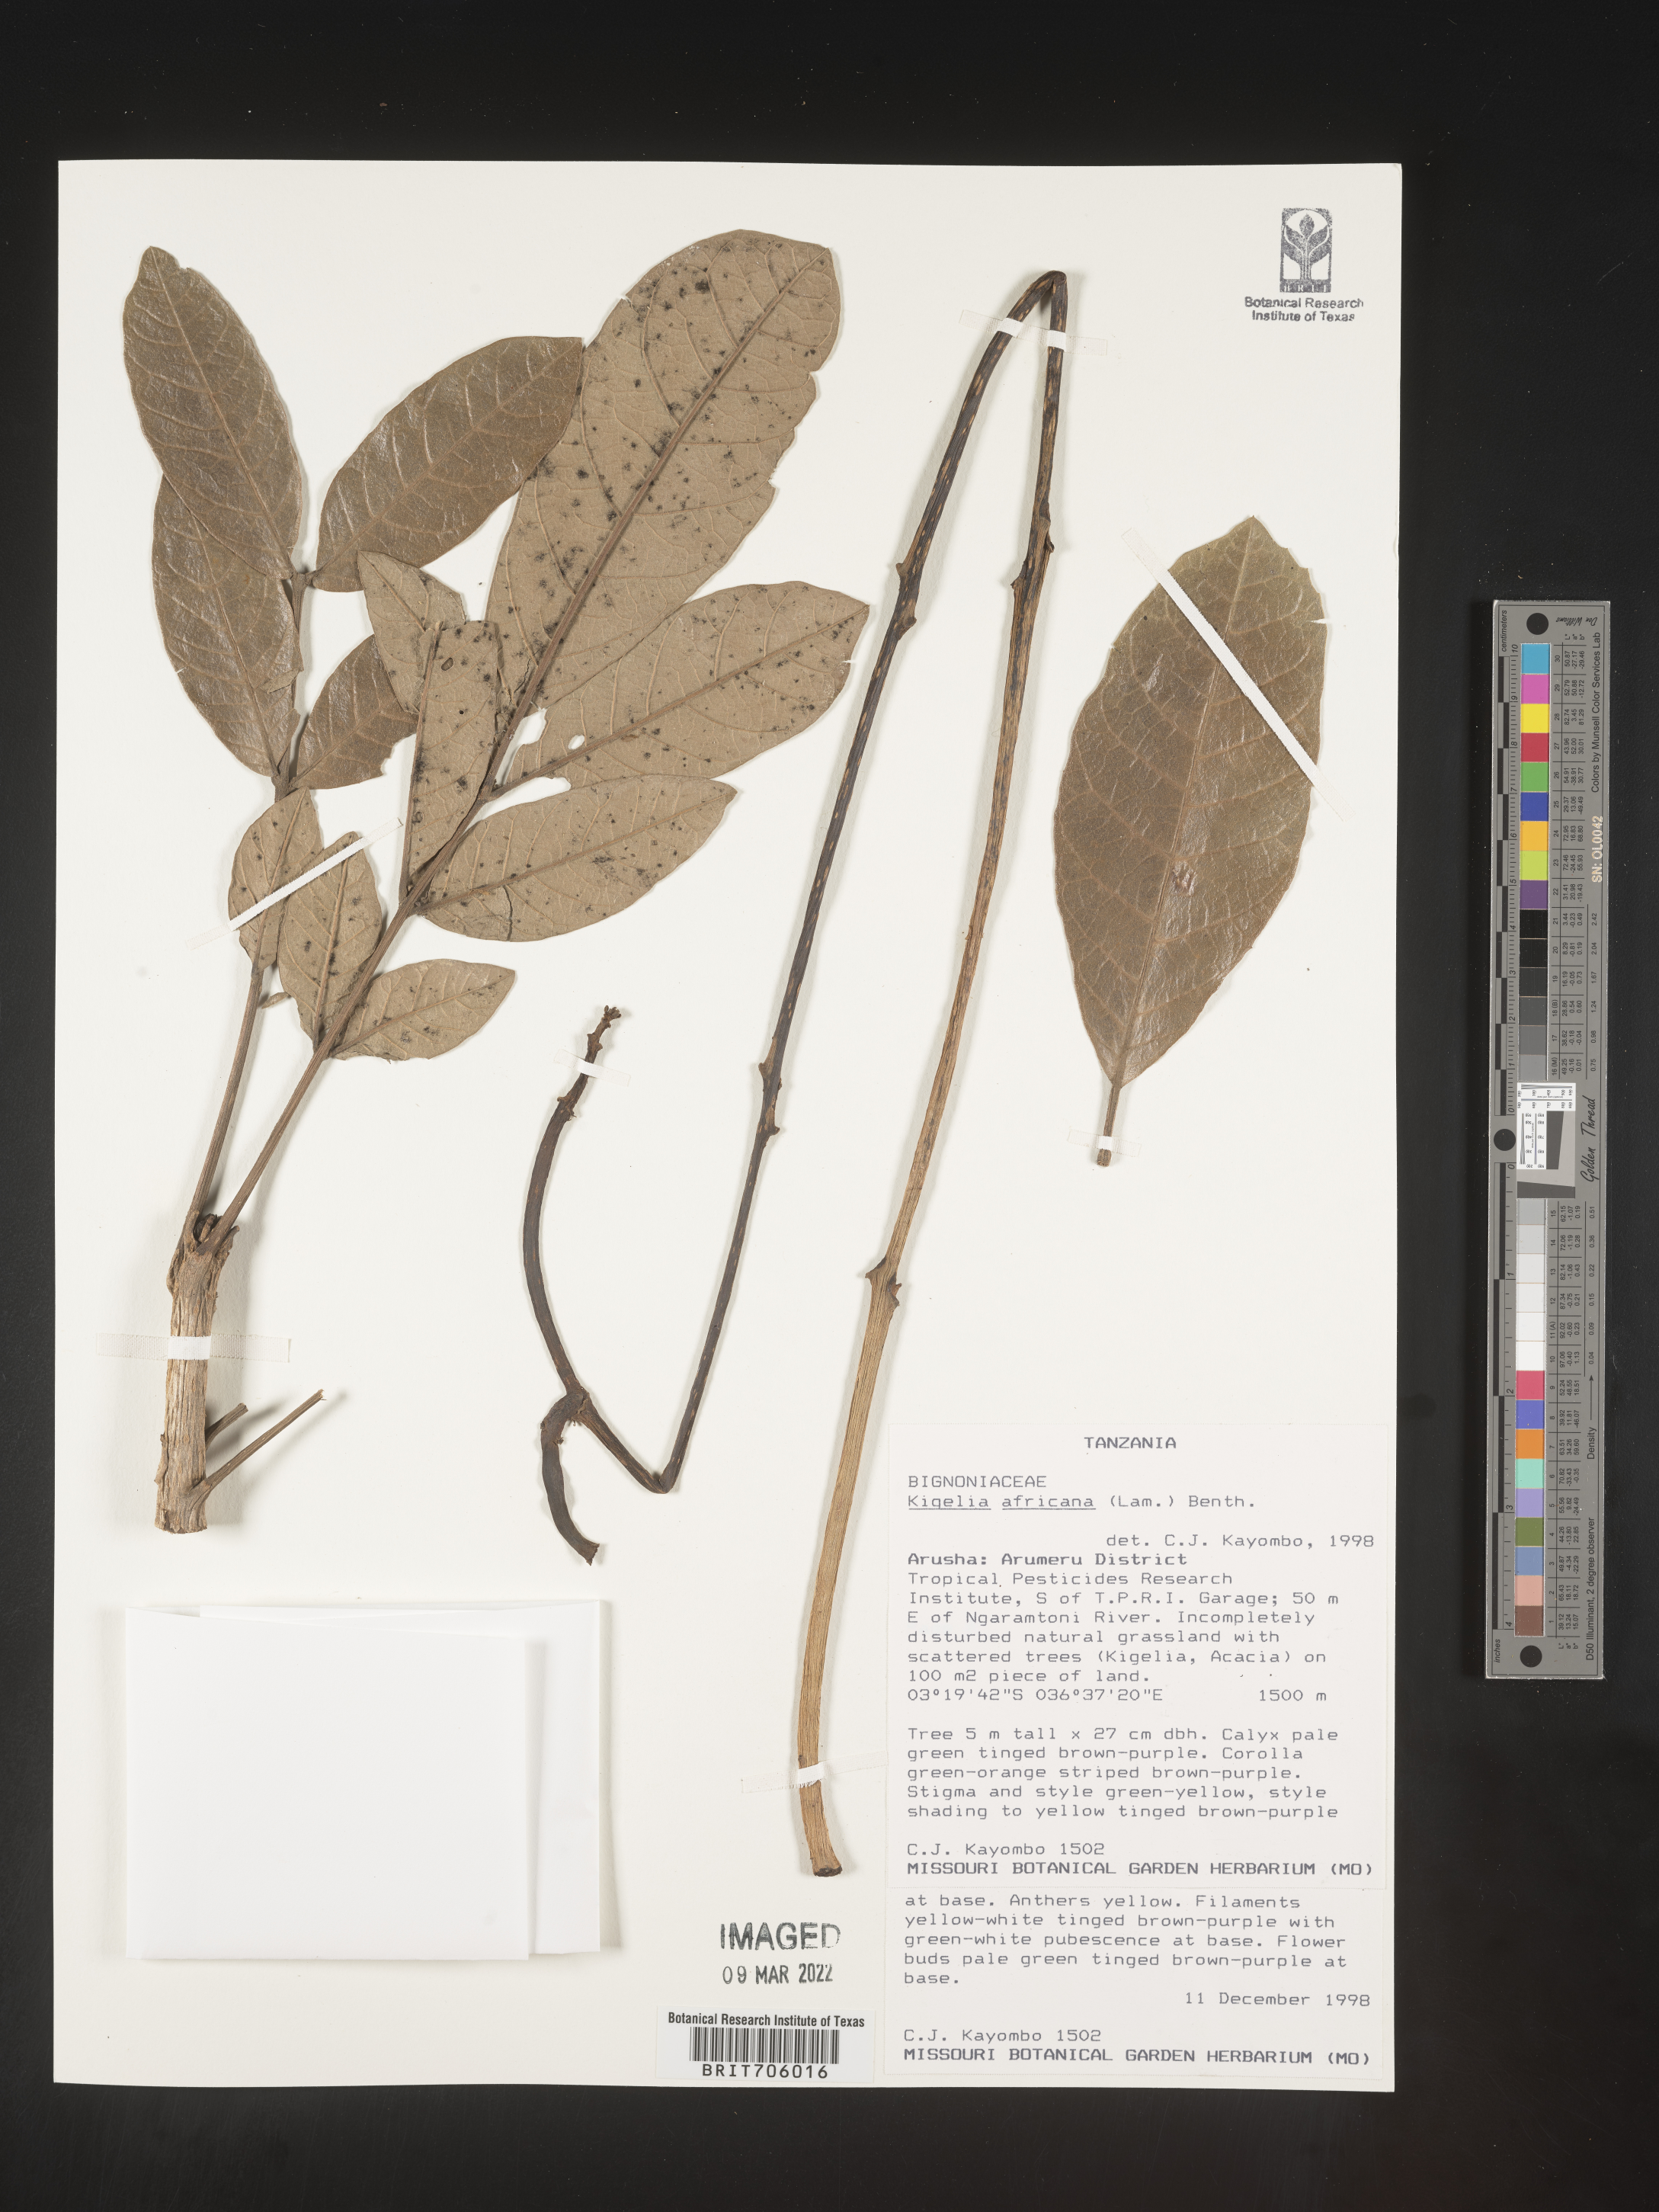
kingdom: Plantae
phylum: Tracheophyta
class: Magnoliopsida
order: Lamiales
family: Bignoniaceae
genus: Kigelia
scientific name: Kigelia
